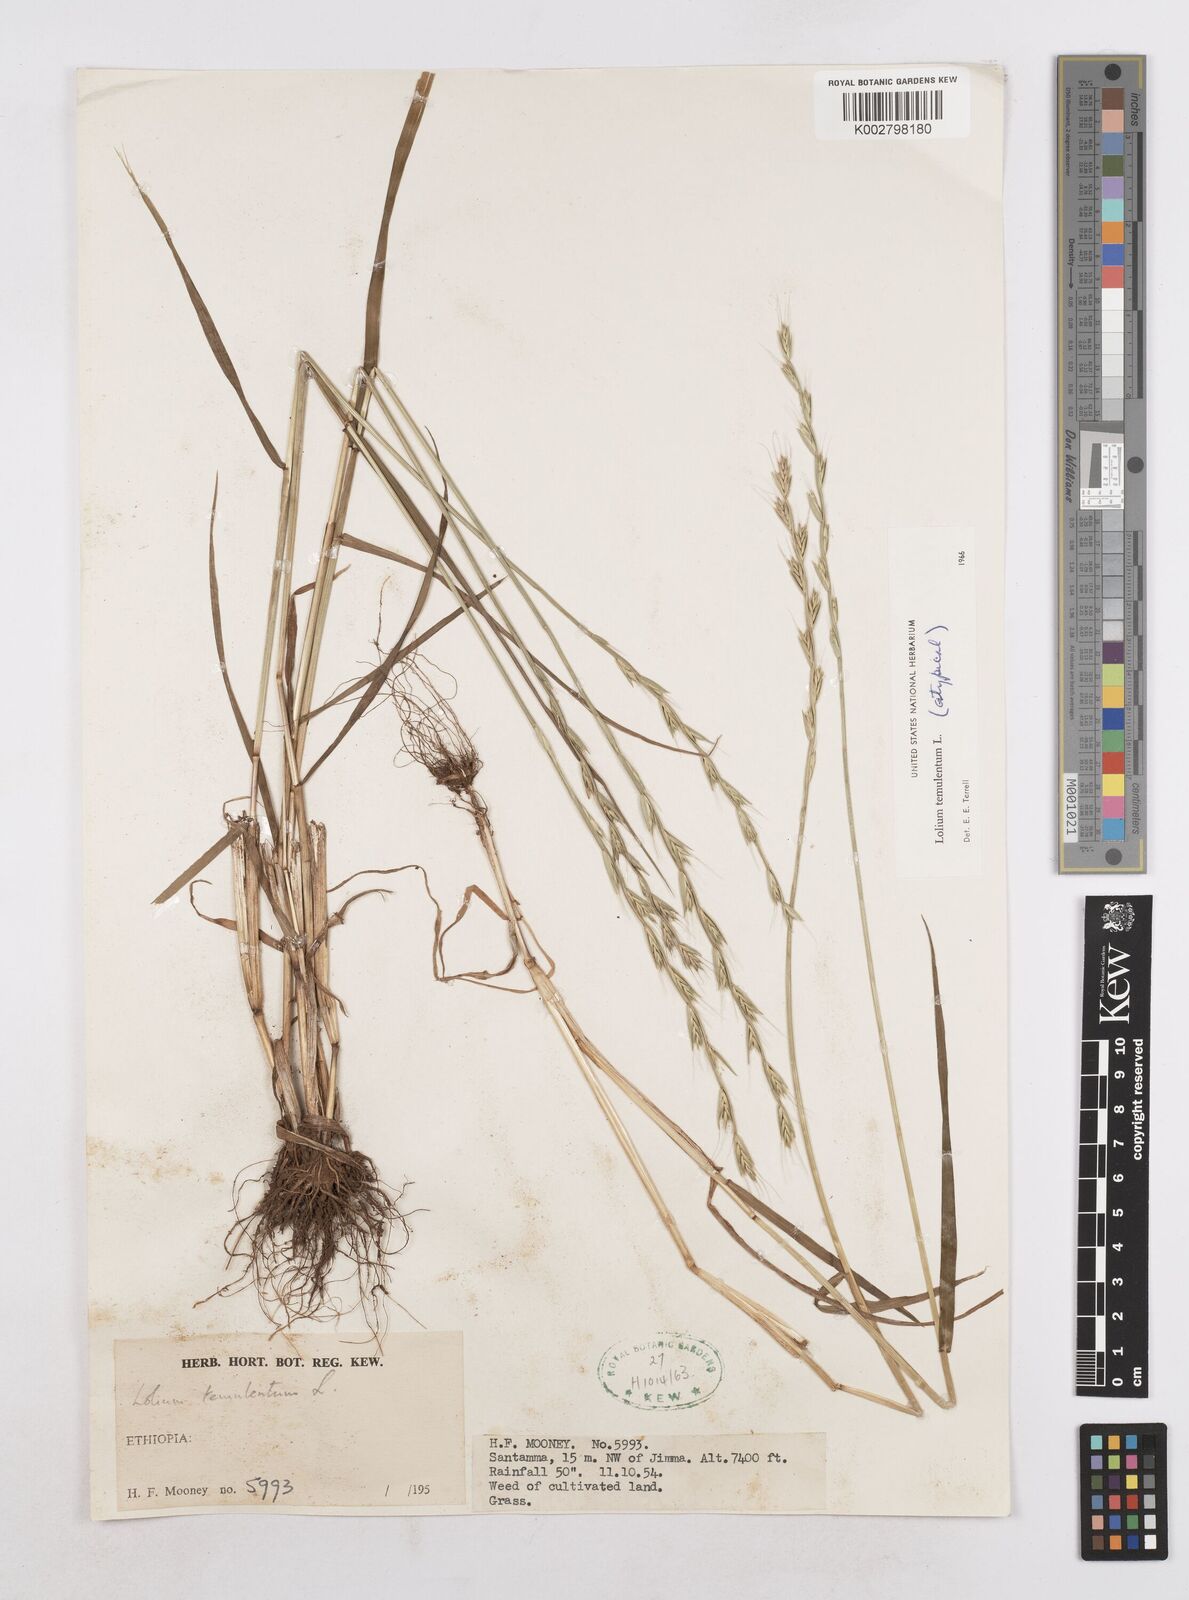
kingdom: Plantae
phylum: Tracheophyta
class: Liliopsida
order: Poales
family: Poaceae
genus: Lolium
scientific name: Lolium temulentum
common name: Darnel
